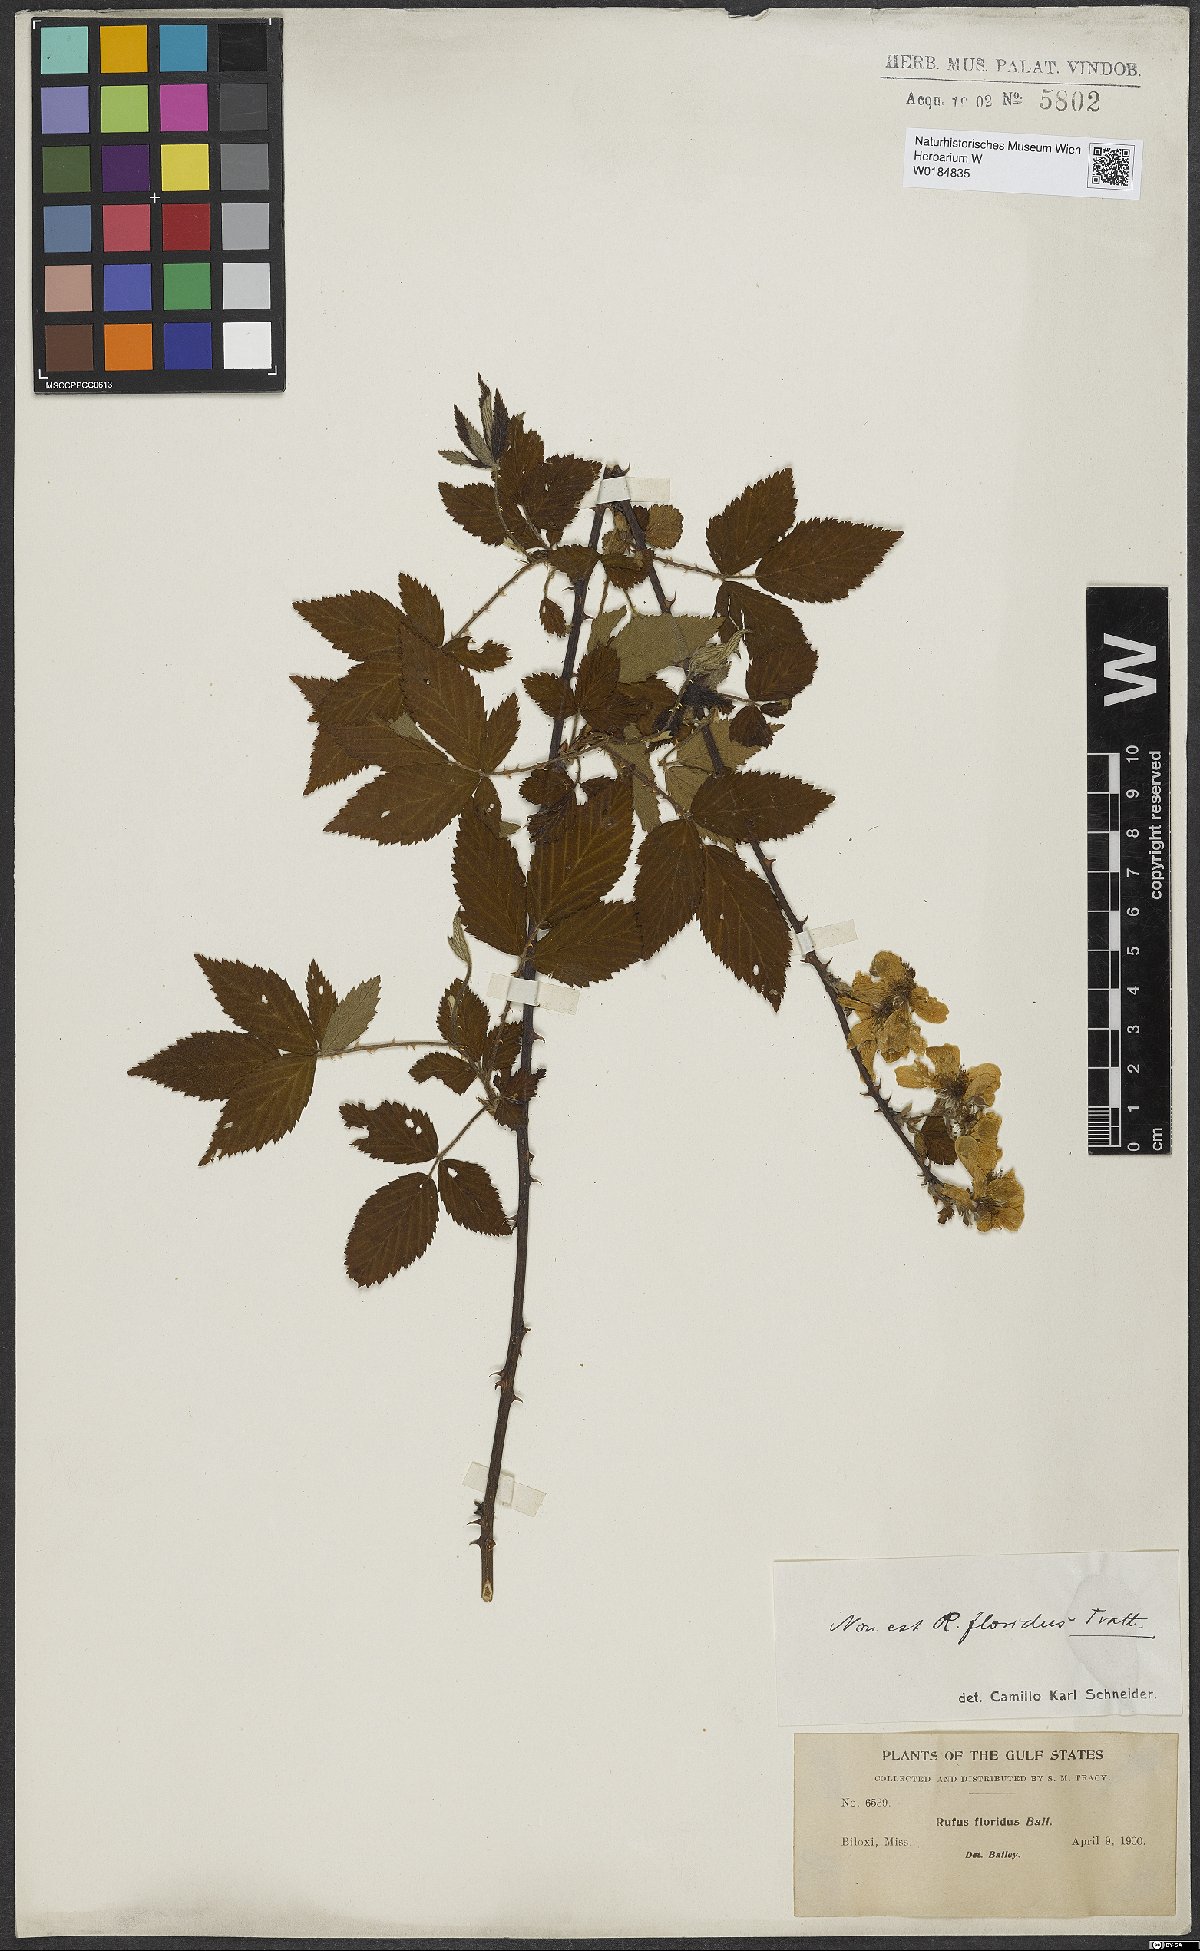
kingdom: Plantae
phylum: Tracheophyta
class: Magnoliopsida
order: Rosales
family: Rosaceae
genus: Rubus
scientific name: Rubus
